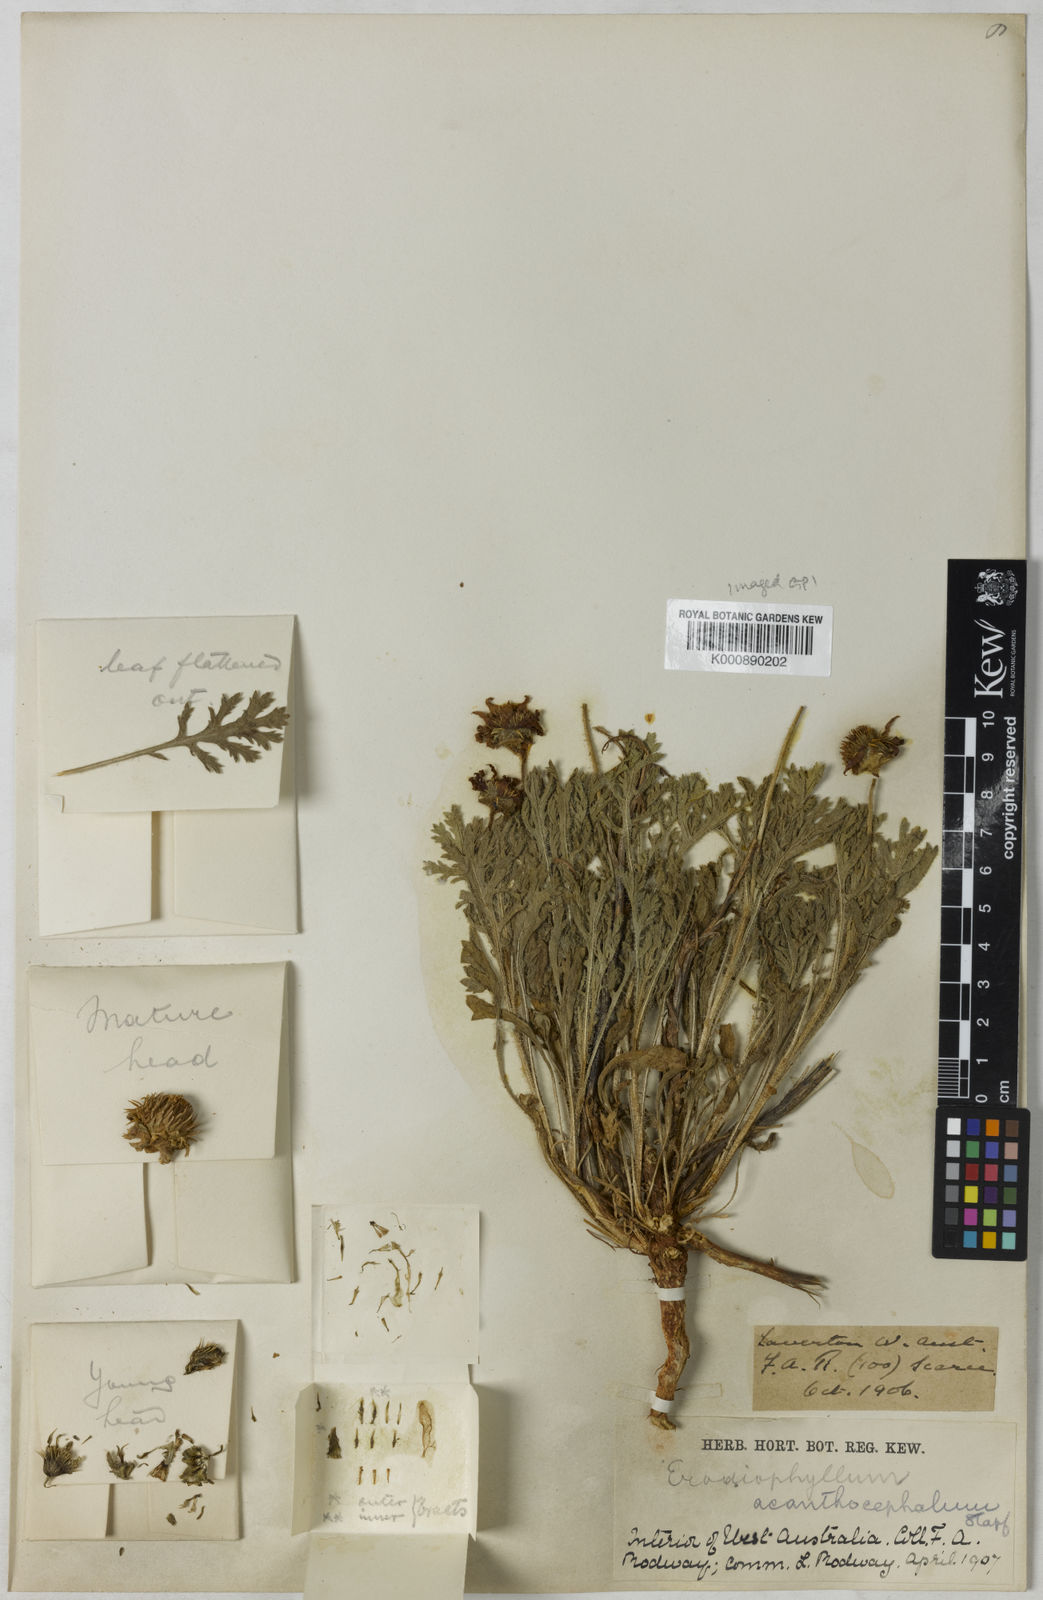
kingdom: Plantae
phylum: Tracheophyta
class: Magnoliopsida
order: Asterales
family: Asteraceae
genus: Erodiophyllum
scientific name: Erodiophyllum acanthocephalum
